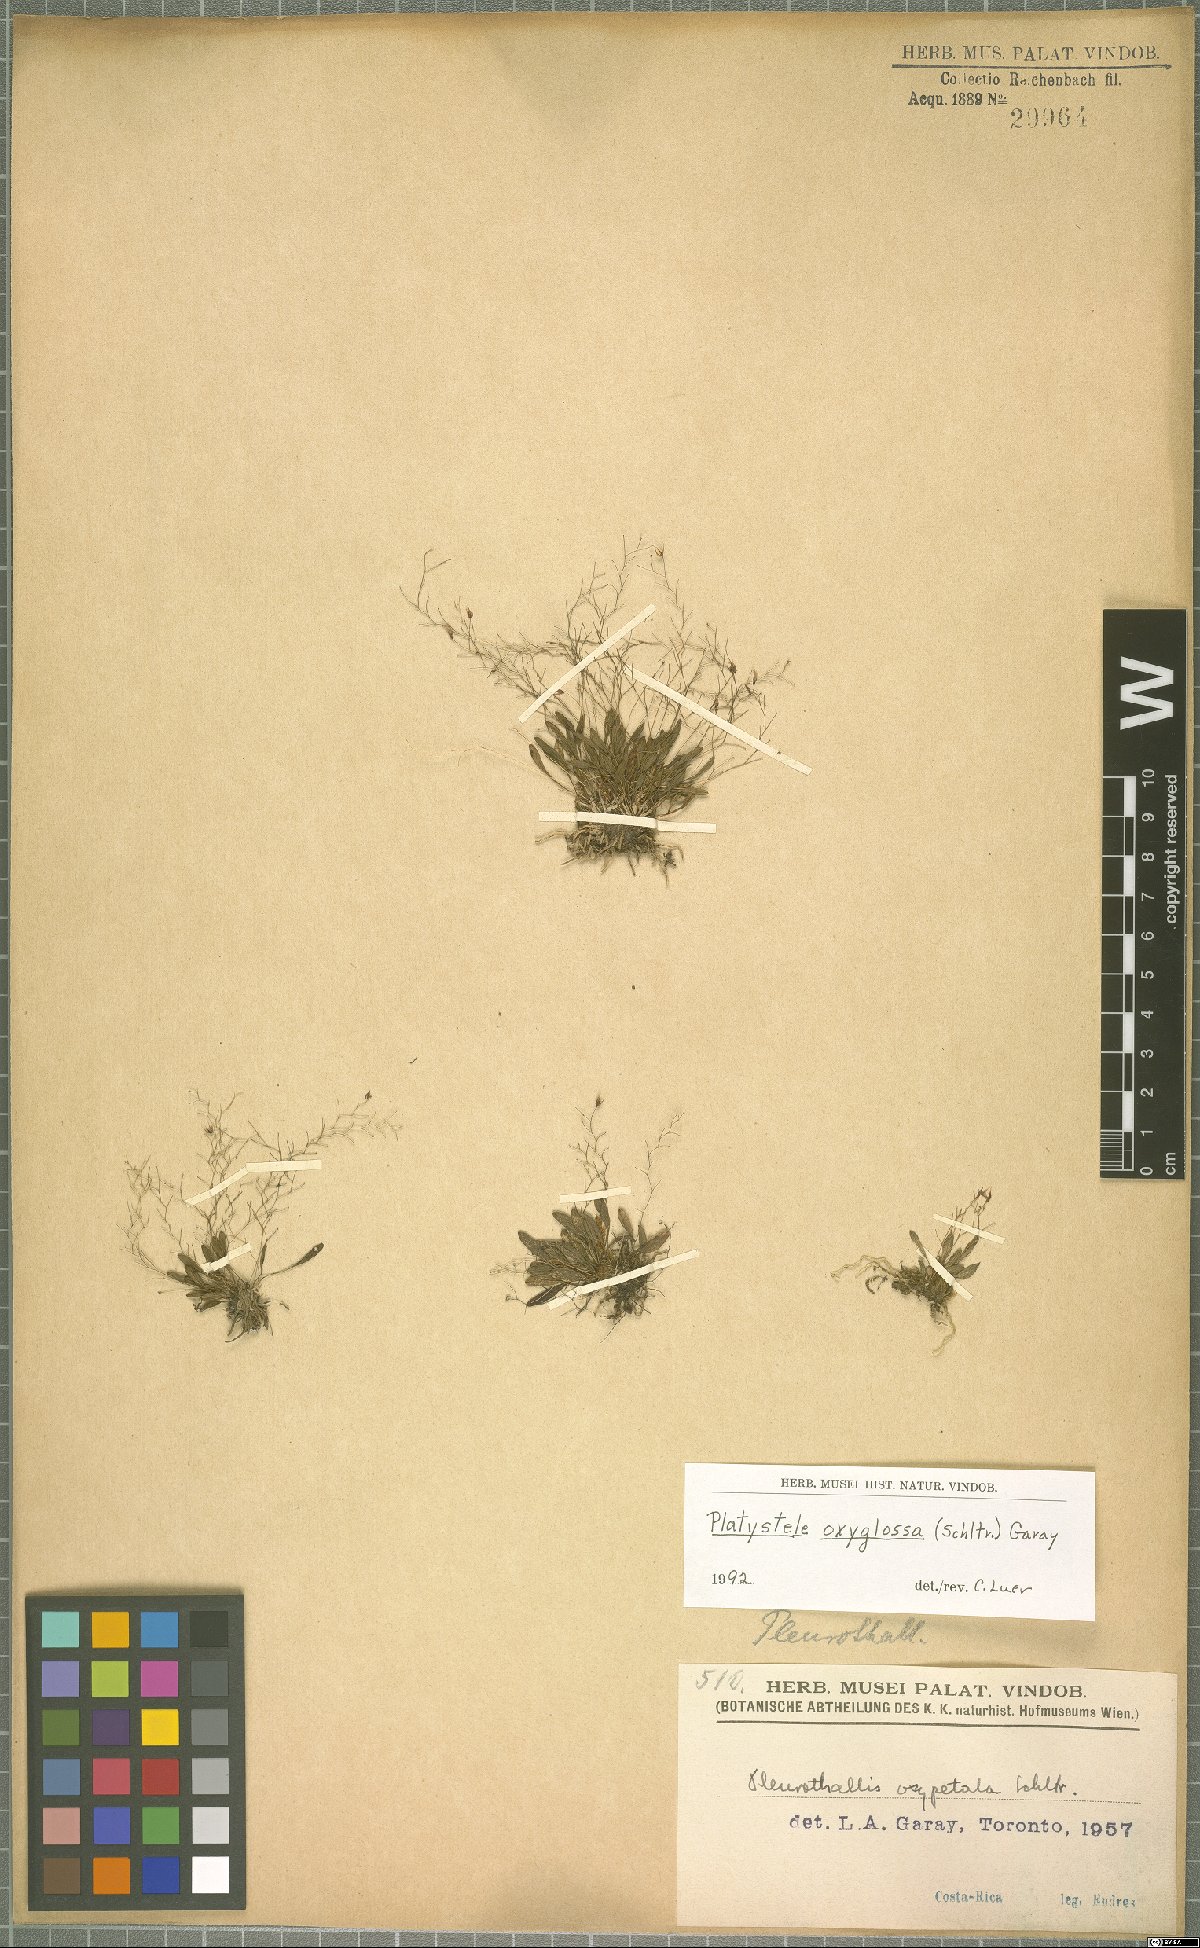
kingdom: Plantae
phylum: Tracheophyta
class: Liliopsida
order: Asparagales
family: Orchidaceae
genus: Platystele
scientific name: Platystele oxyglossa
